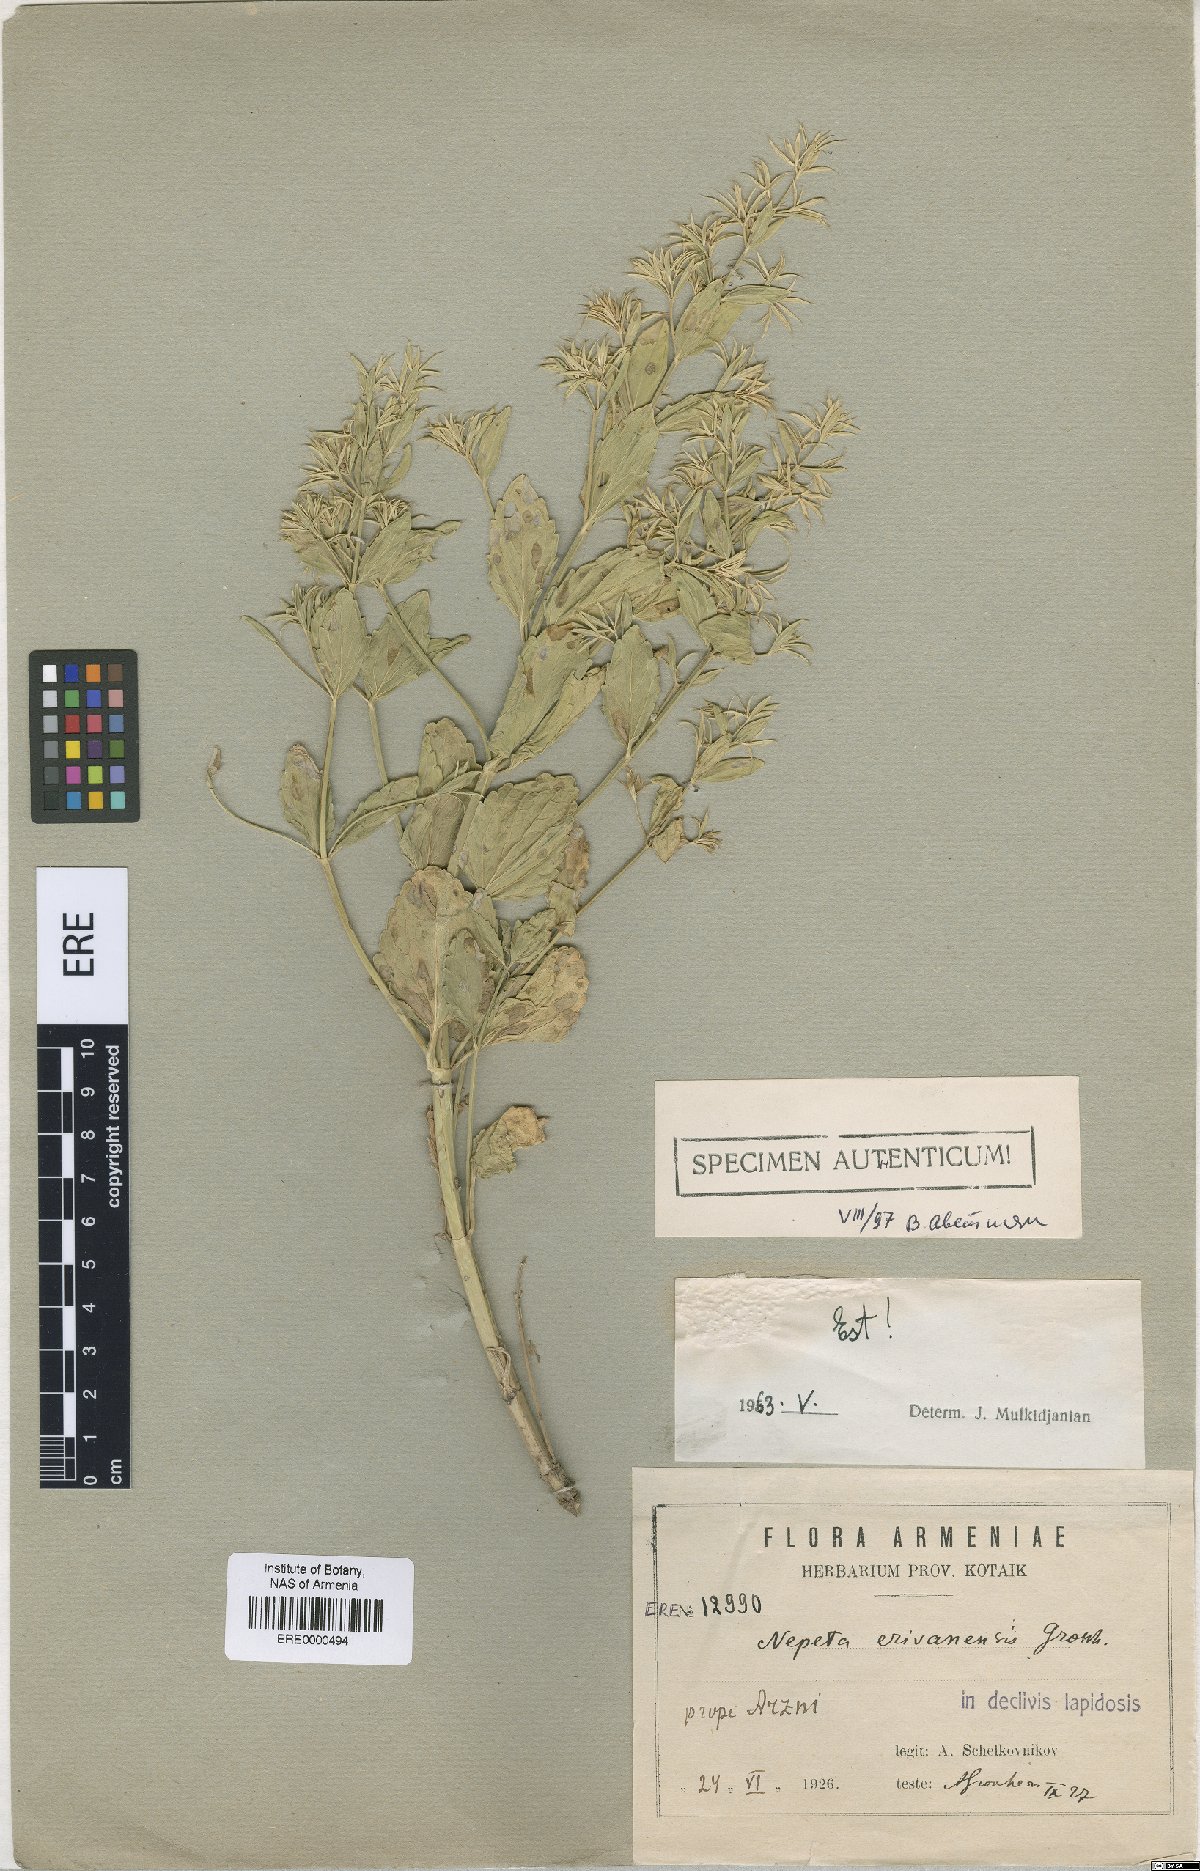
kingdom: Plantae
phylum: Tracheophyta
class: Magnoliopsida
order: Lamiales
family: Lamiaceae
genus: Nepeta
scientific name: Nepeta congesta
